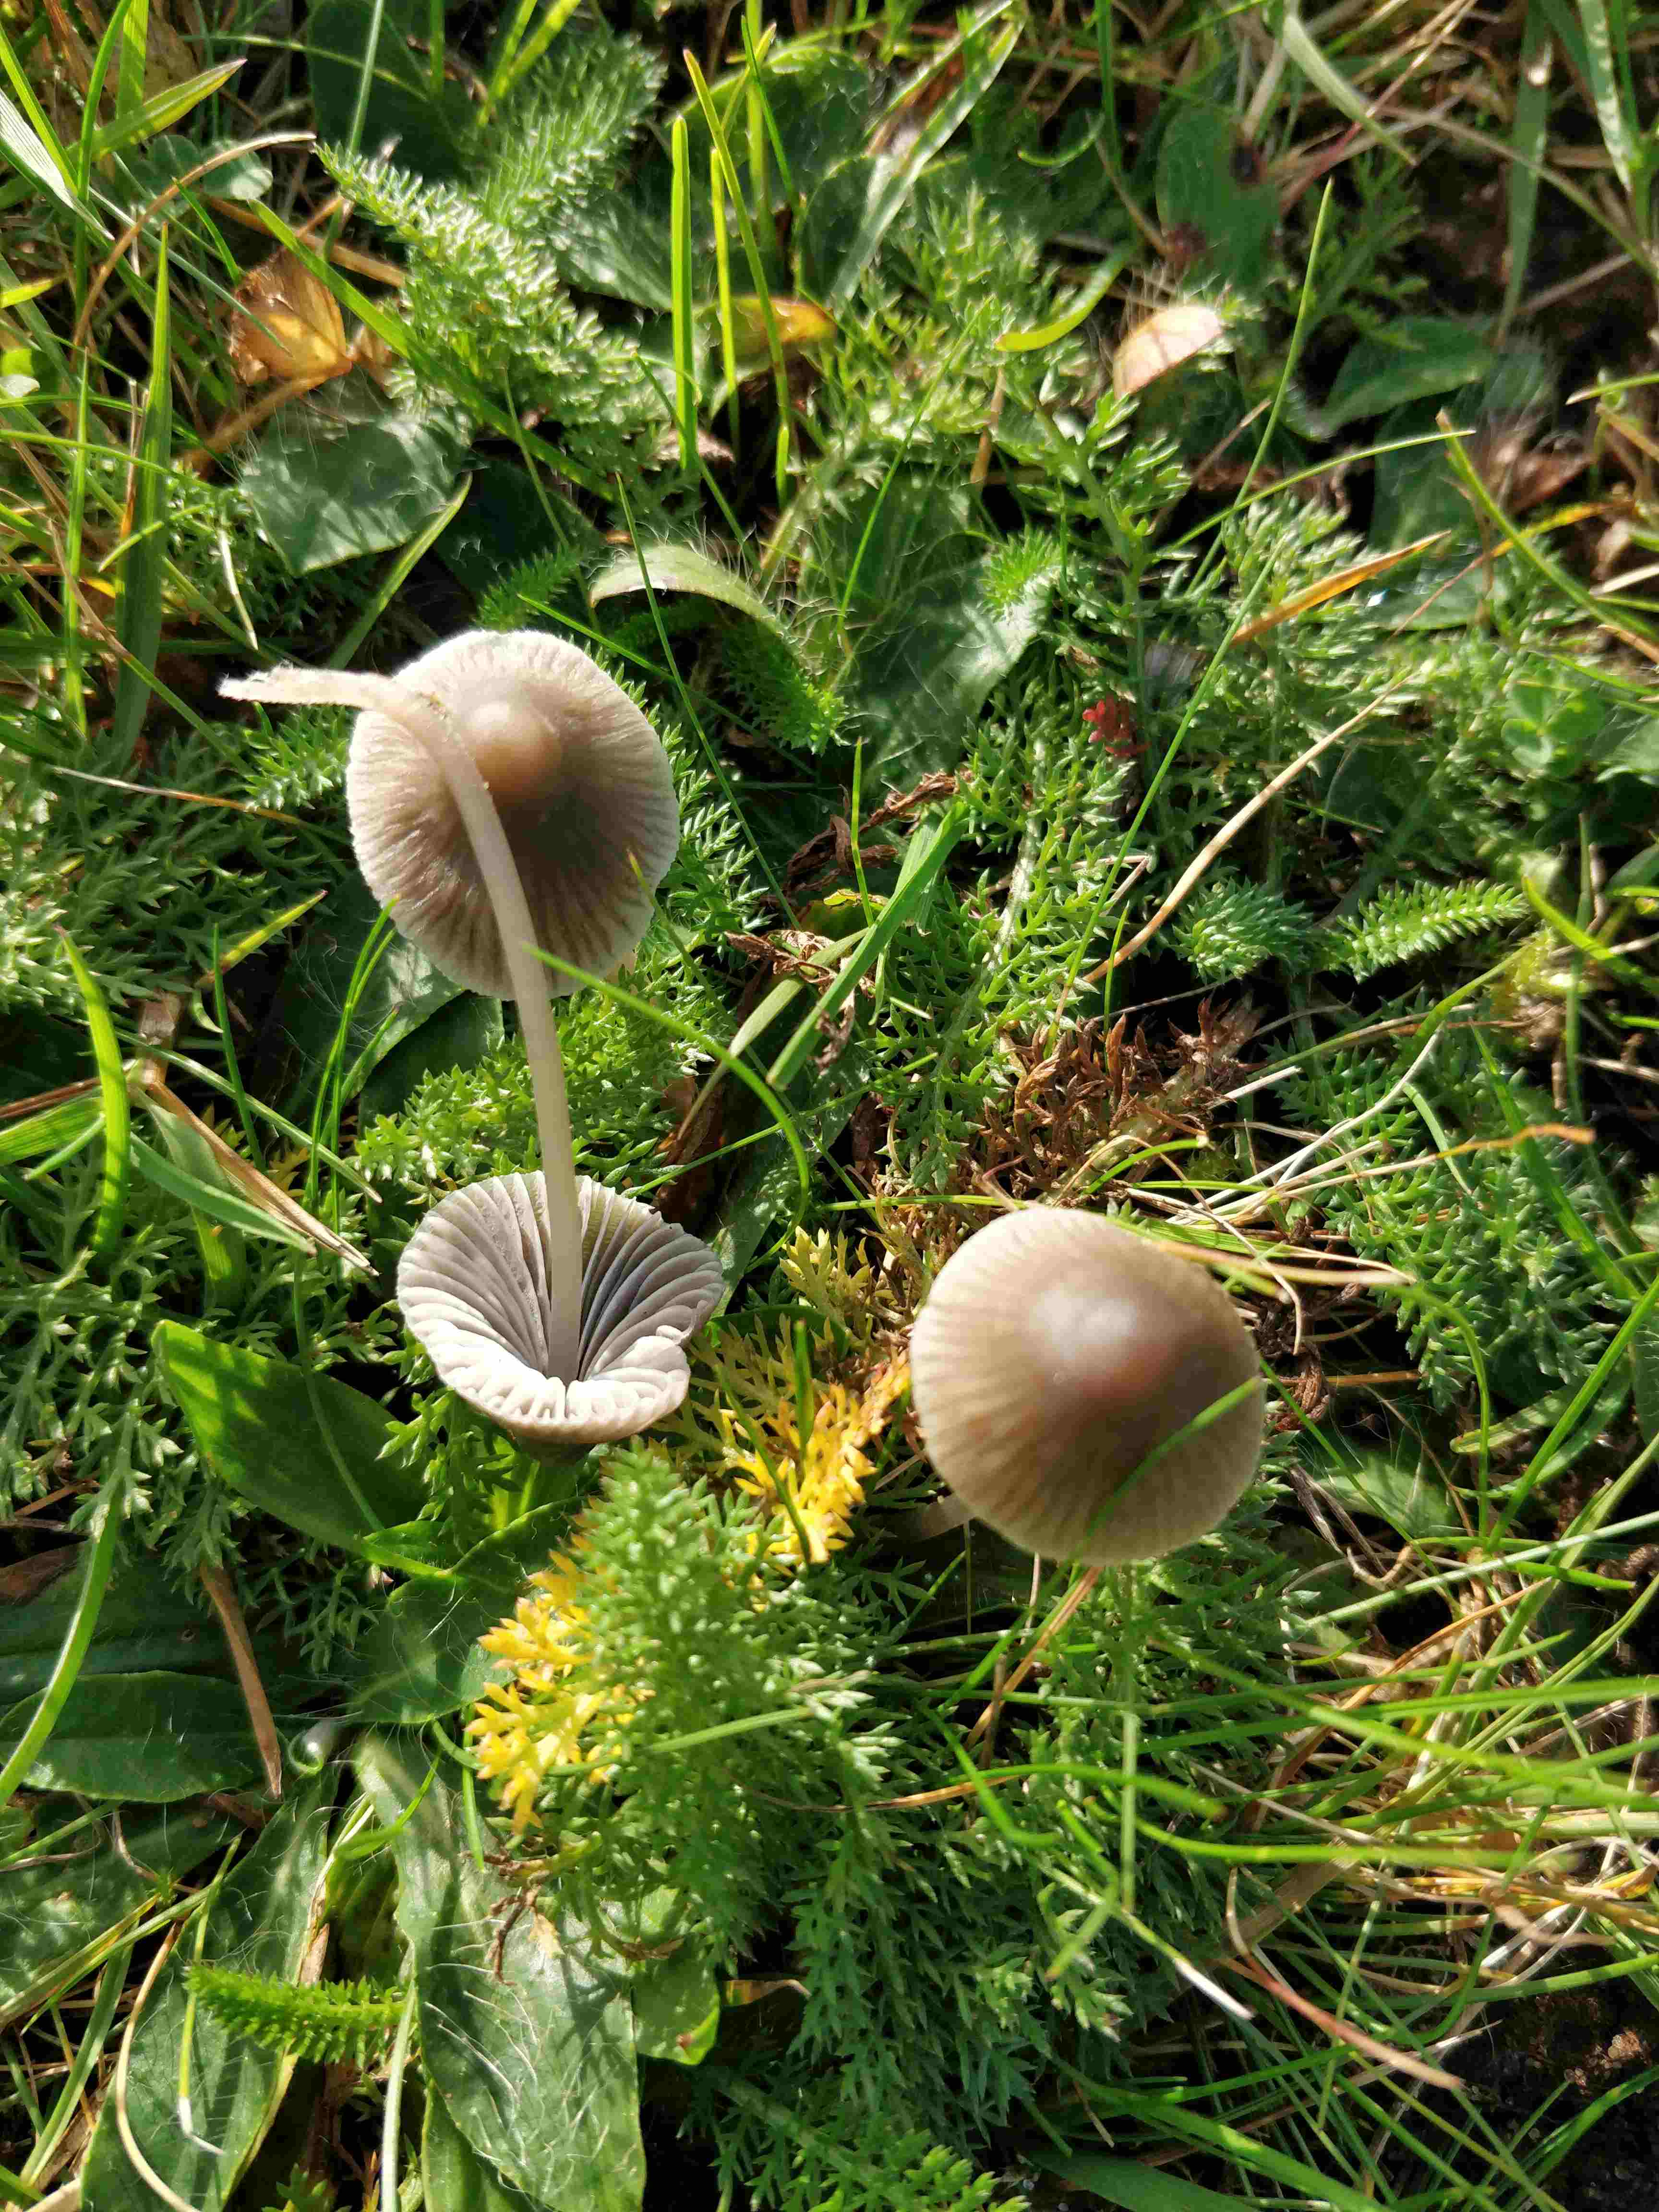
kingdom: Fungi
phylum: Basidiomycota
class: Agaricomycetes
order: Agaricales
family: Mycenaceae
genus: Mycena
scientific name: Mycena
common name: huesvamp
